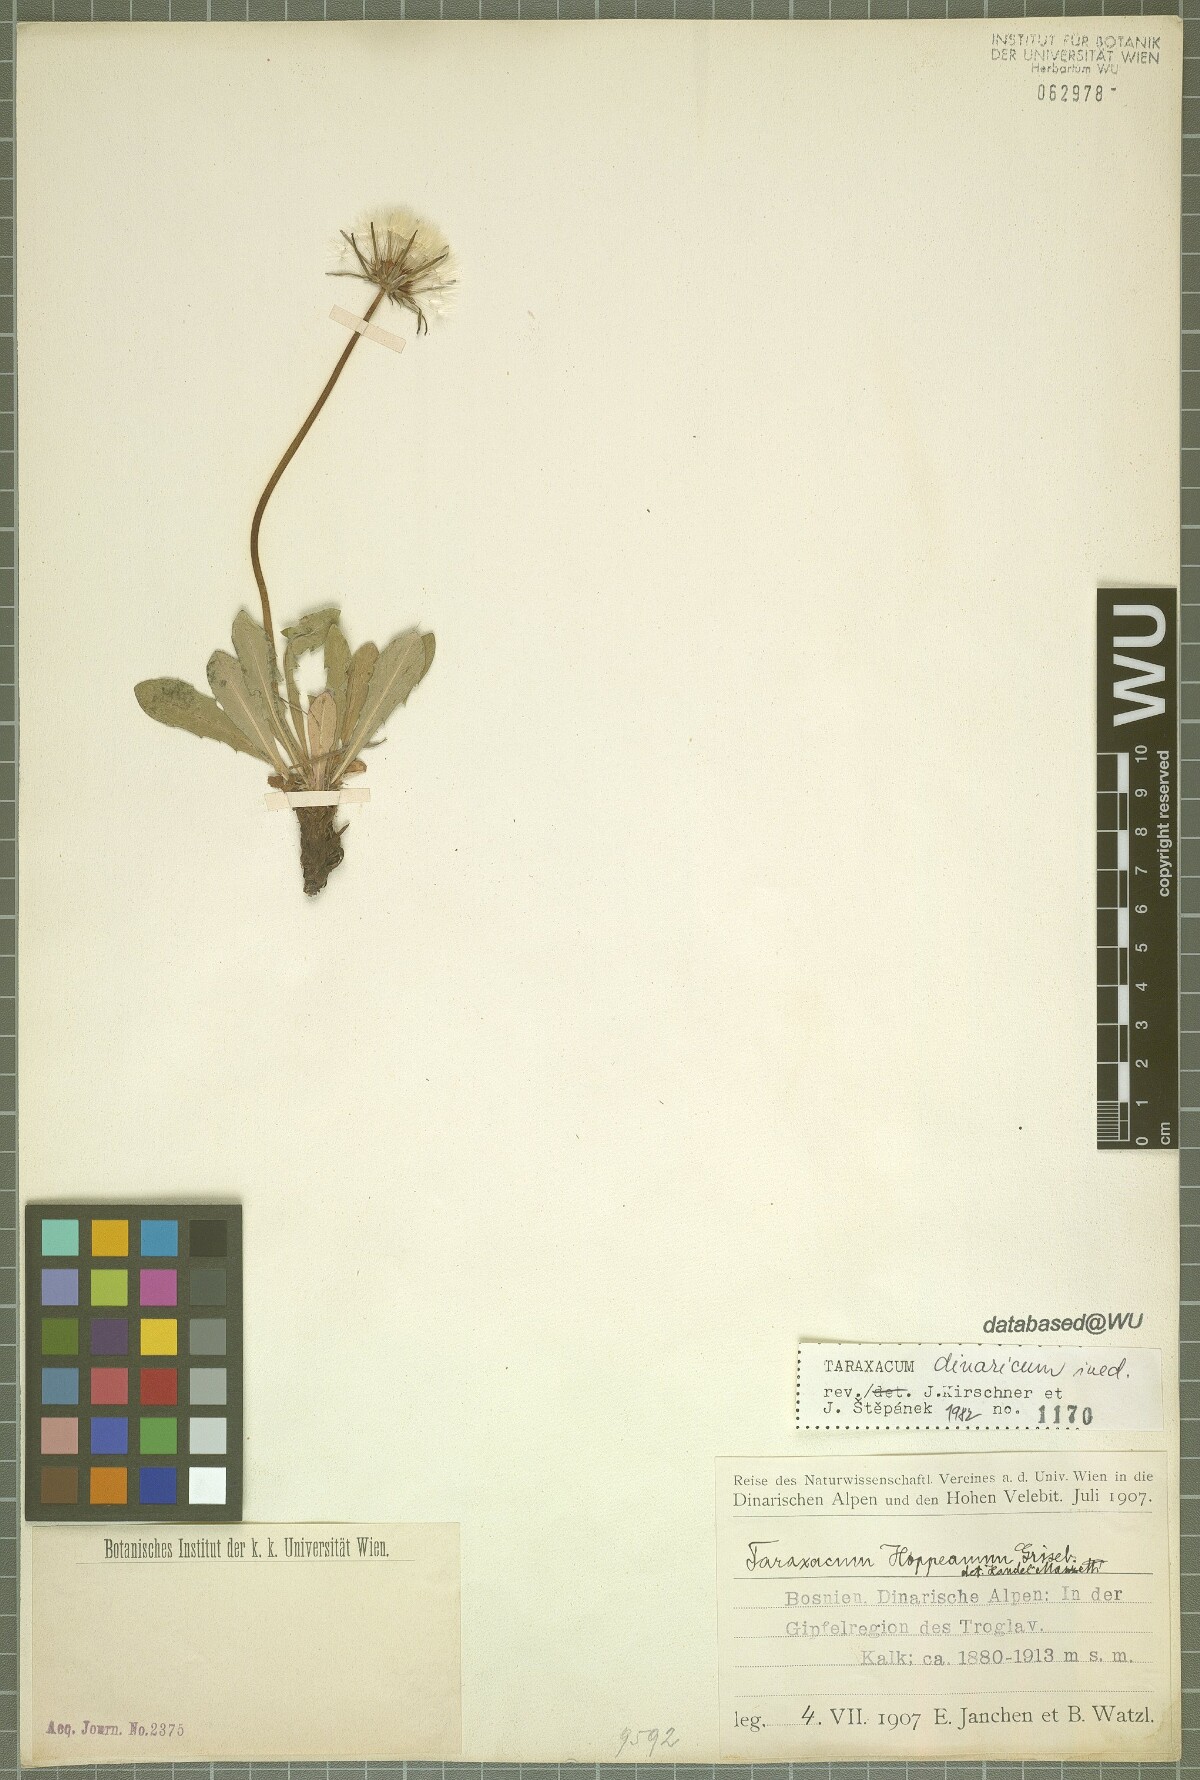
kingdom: Plantae
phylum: Tracheophyta
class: Magnoliopsida
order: Asterales
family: Asteraceae
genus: Taraxacum
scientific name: Taraxacum
